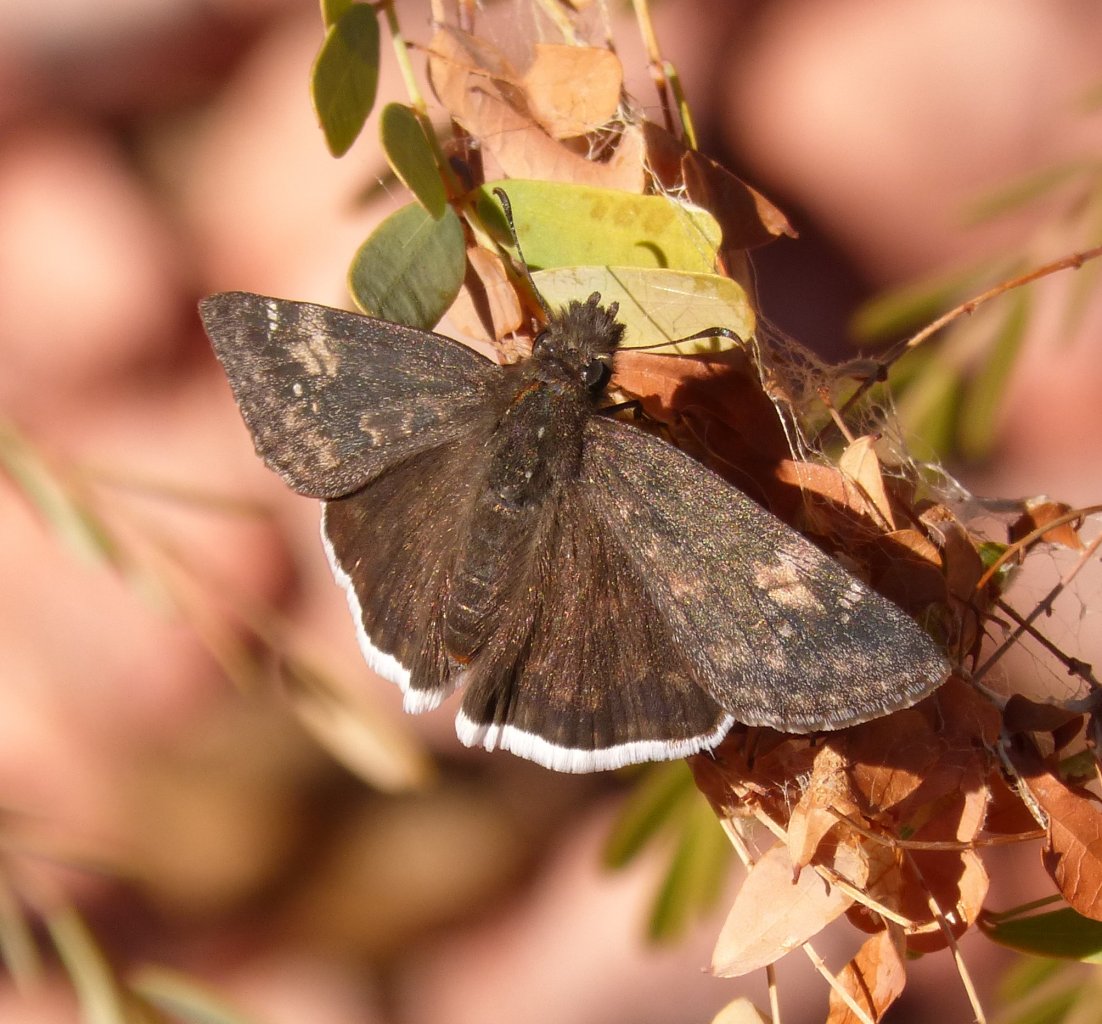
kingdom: Animalia
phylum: Arthropoda
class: Insecta
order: Lepidoptera
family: Hesperiidae
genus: Erynnis
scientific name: Erynnis funeralis
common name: Funereal Duskywing
